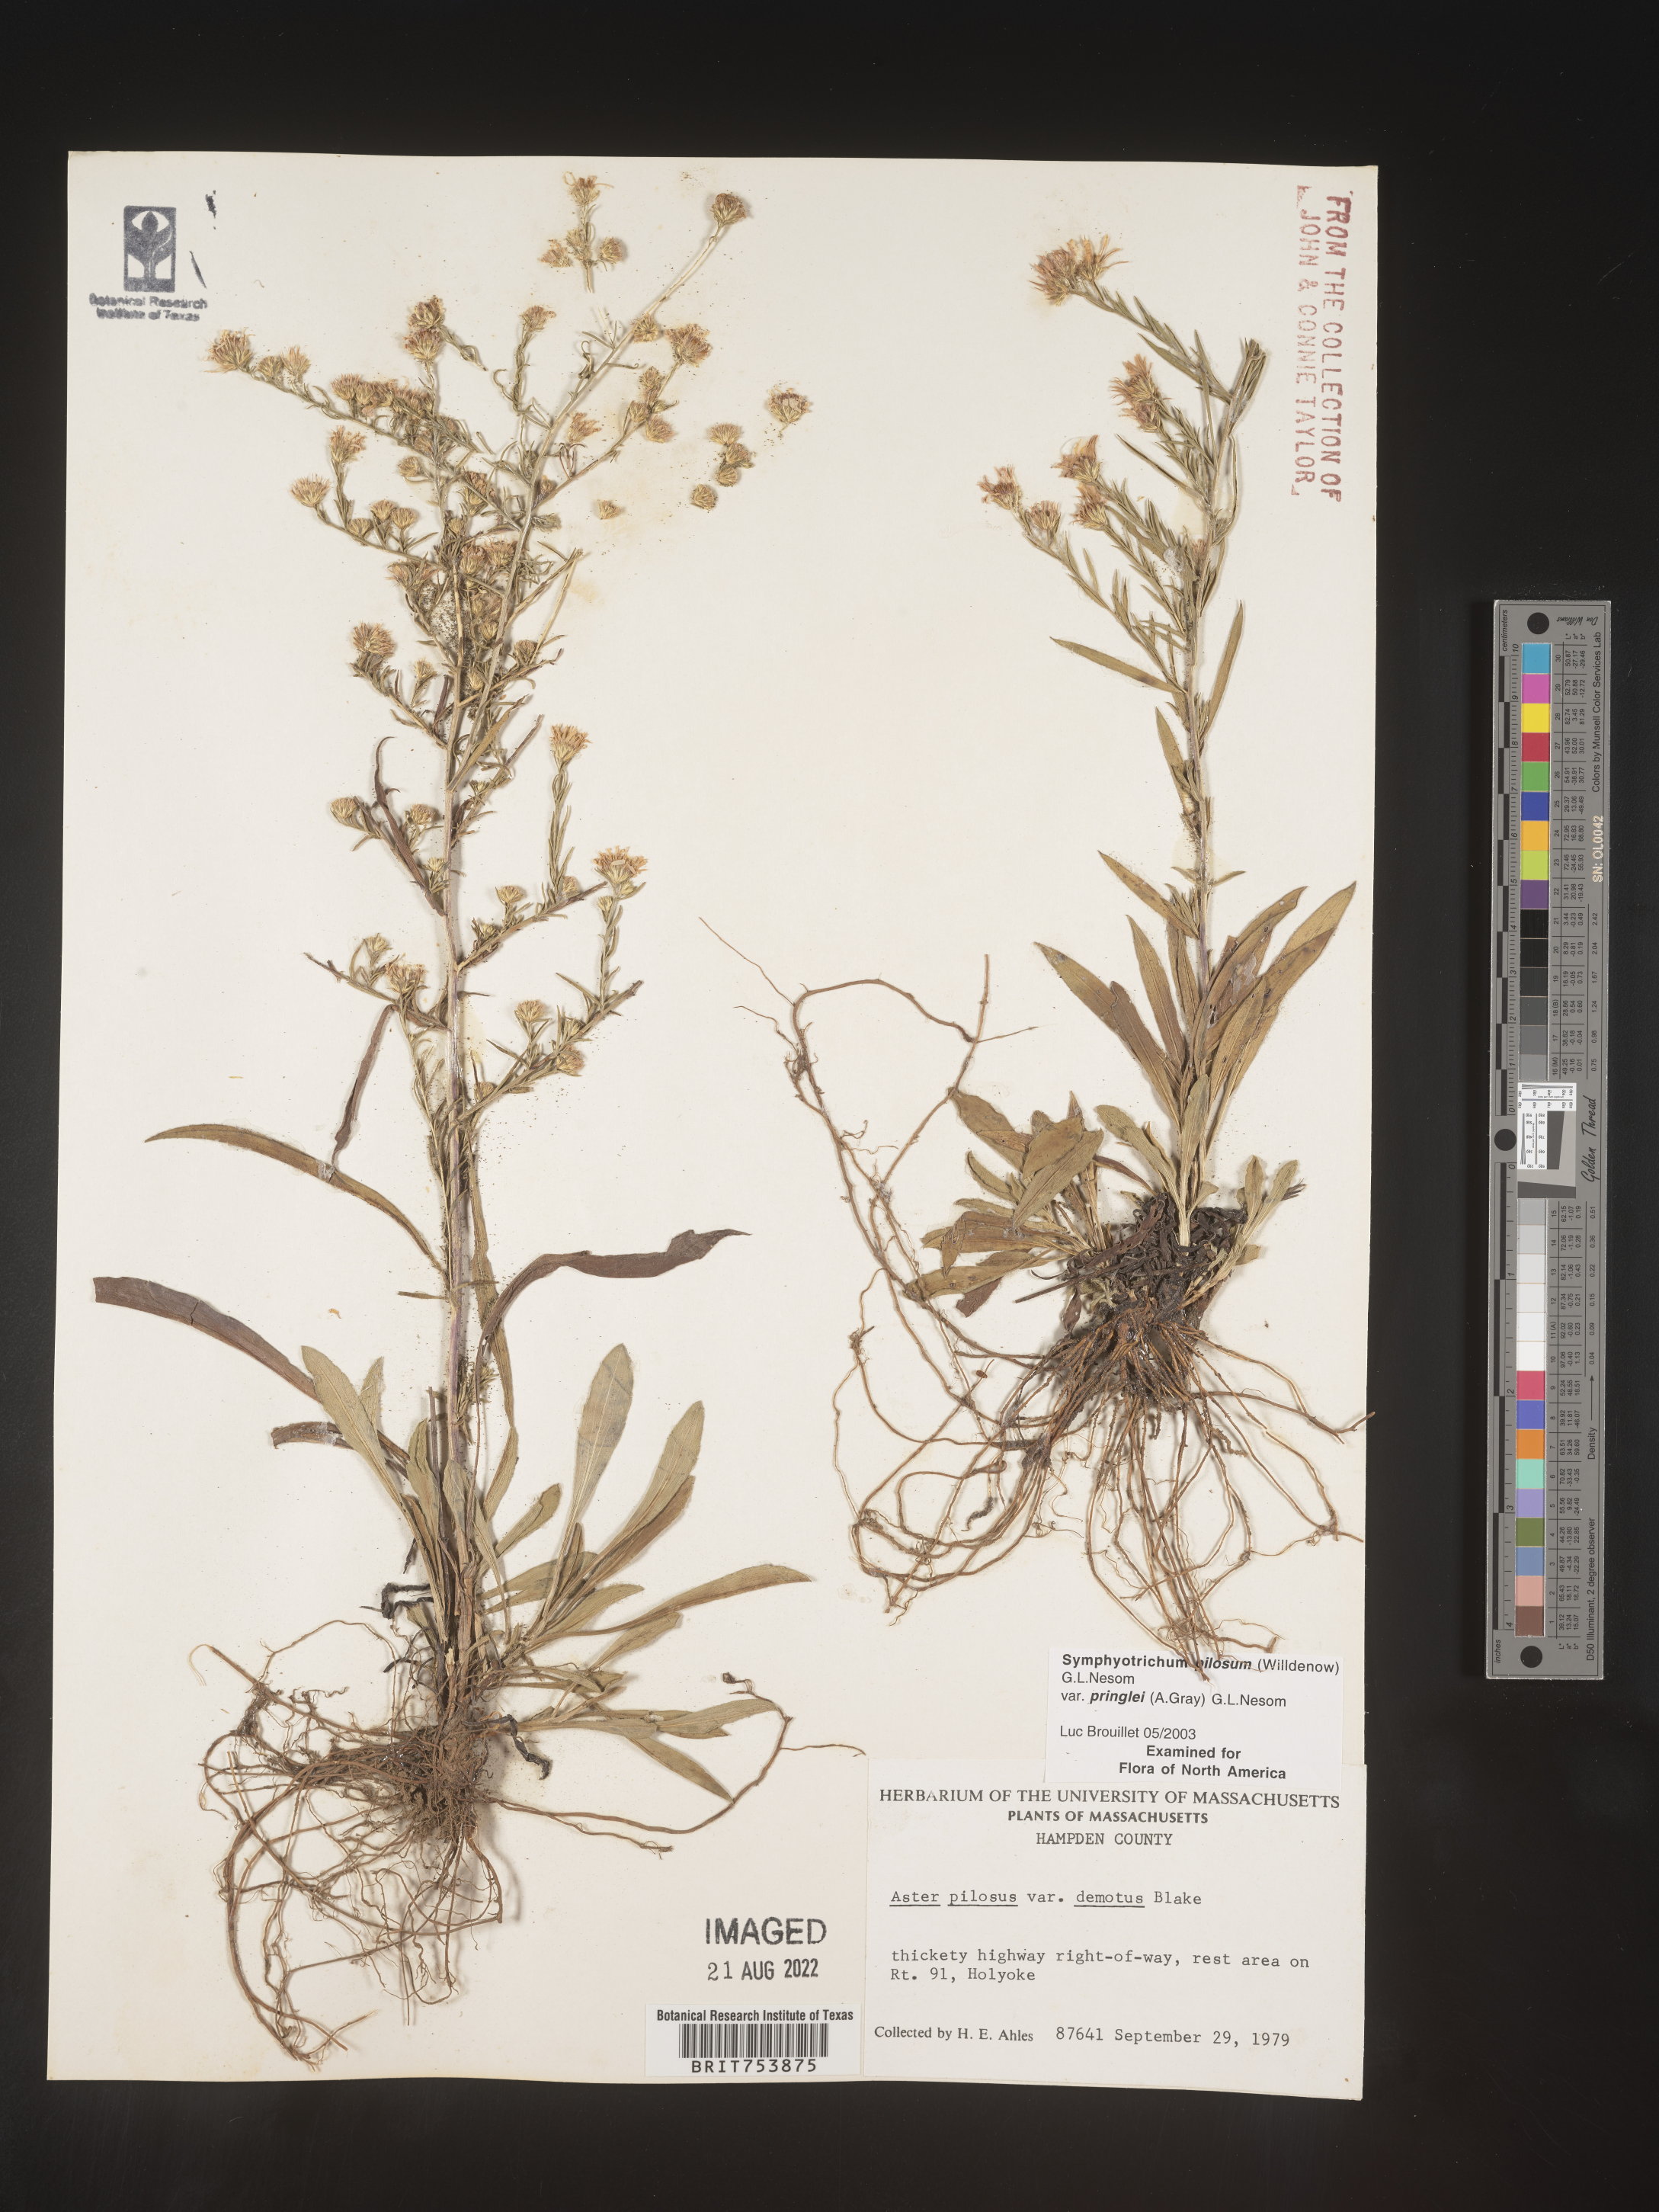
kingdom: Plantae
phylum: Tracheophyta
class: Magnoliopsida
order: Asterales
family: Asteraceae
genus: Symphyotrichum
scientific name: Symphyotrichum pilosum
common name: Awl aster
